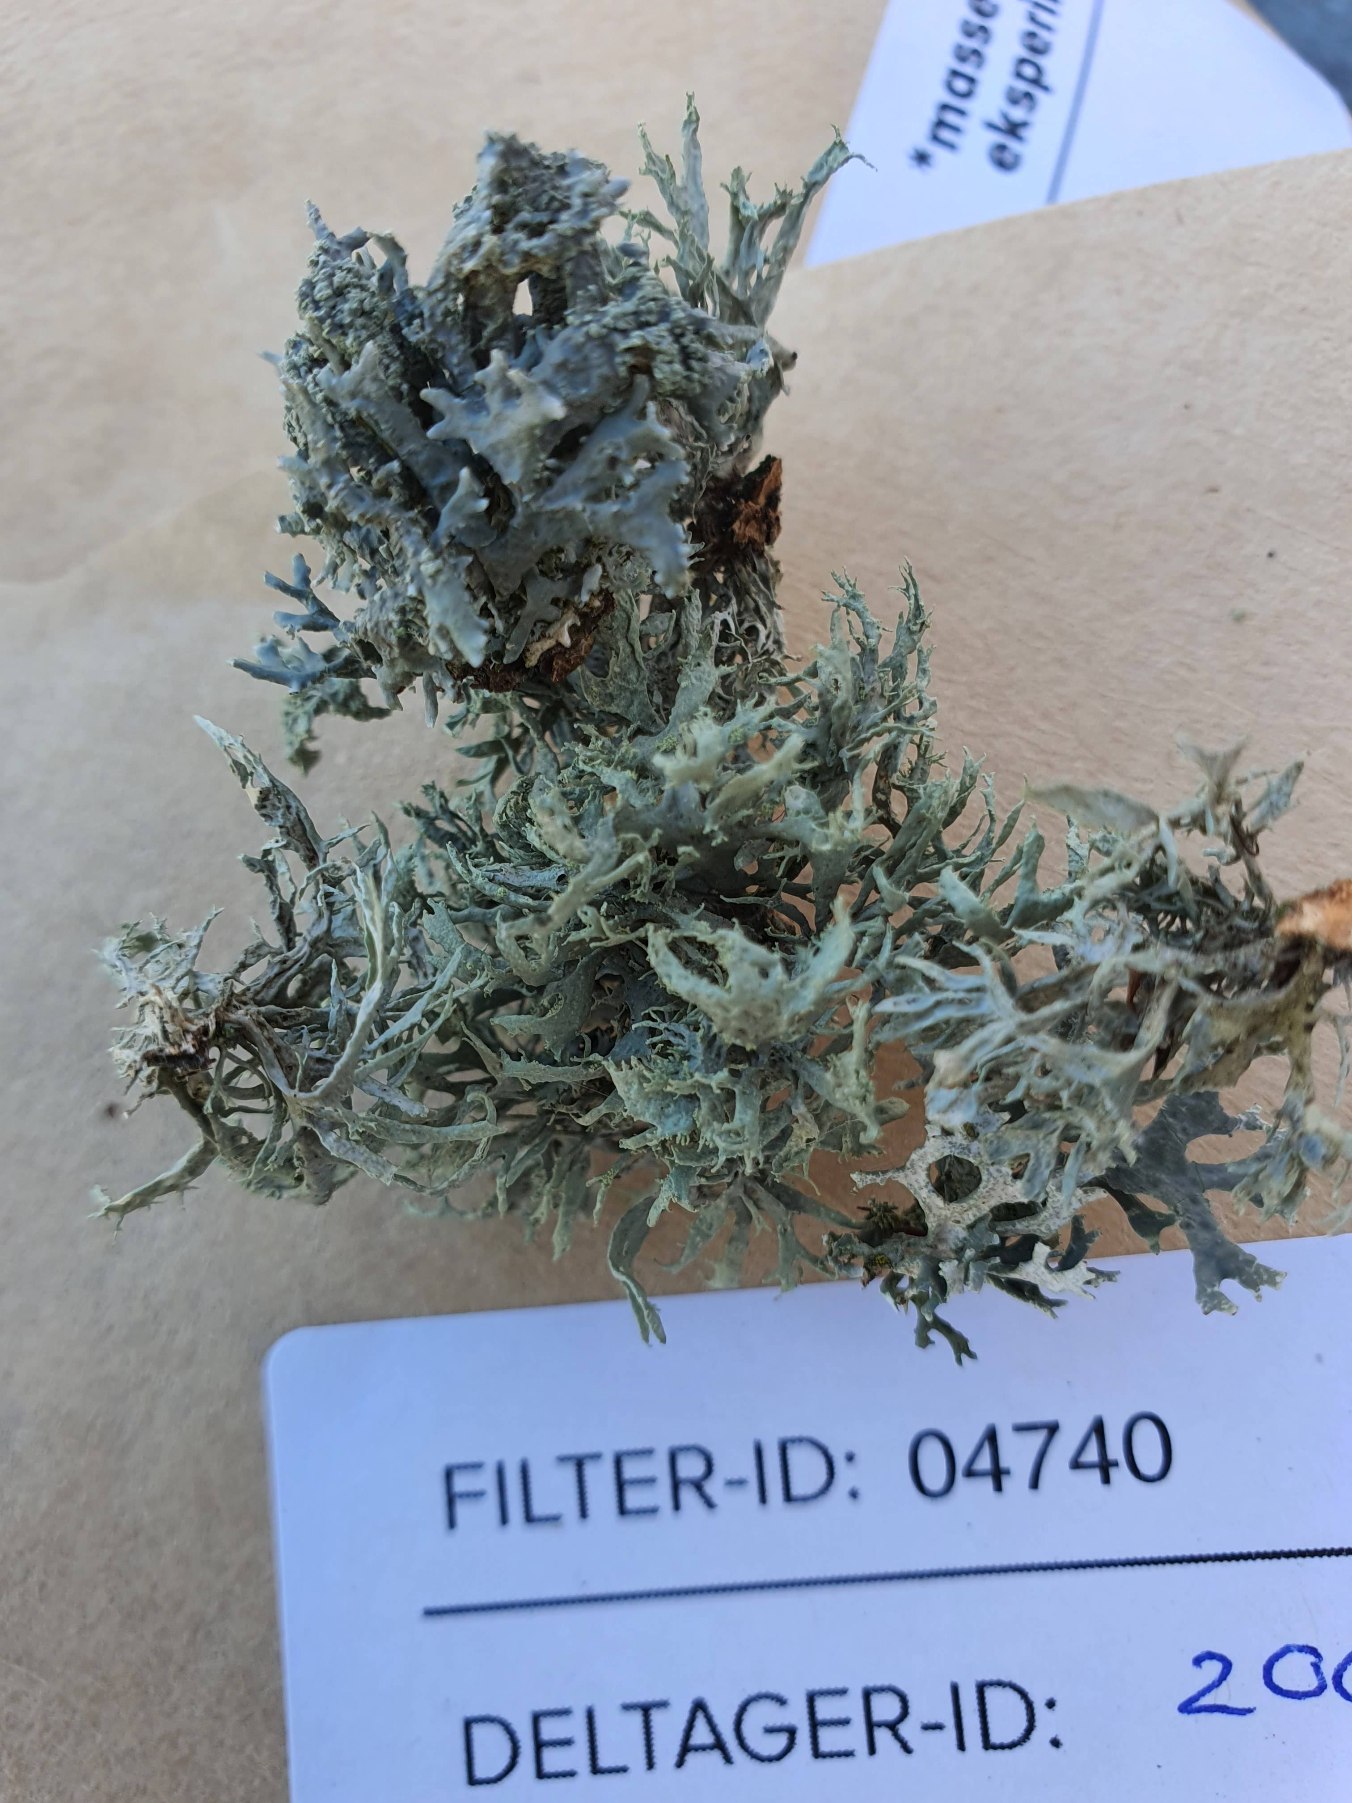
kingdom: Fungi
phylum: Ascomycota
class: Lecanoromycetes
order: Lecanorales
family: Ramalinaceae
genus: Ramalina
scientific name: Ramalina farinacea
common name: Melet grenlav
